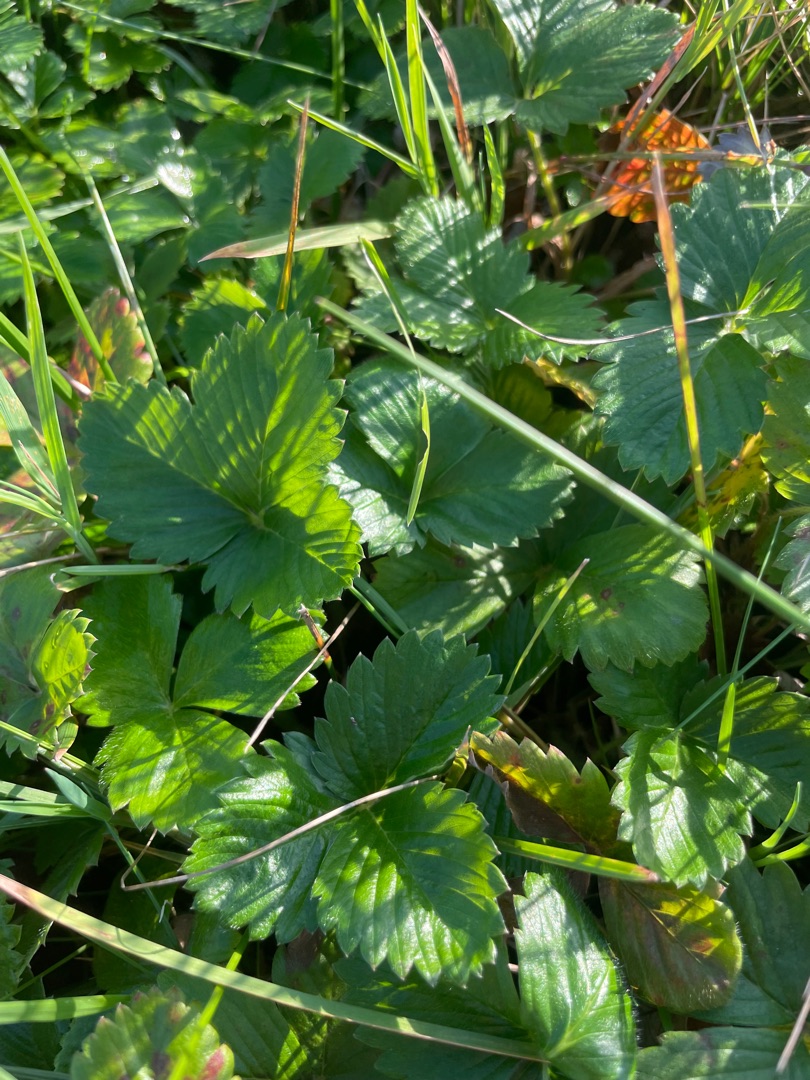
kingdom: Plantae
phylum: Tracheophyta
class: Magnoliopsida
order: Rosales
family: Rosaceae
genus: Fragaria
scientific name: Fragaria vesca
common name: Skov-jordbær
